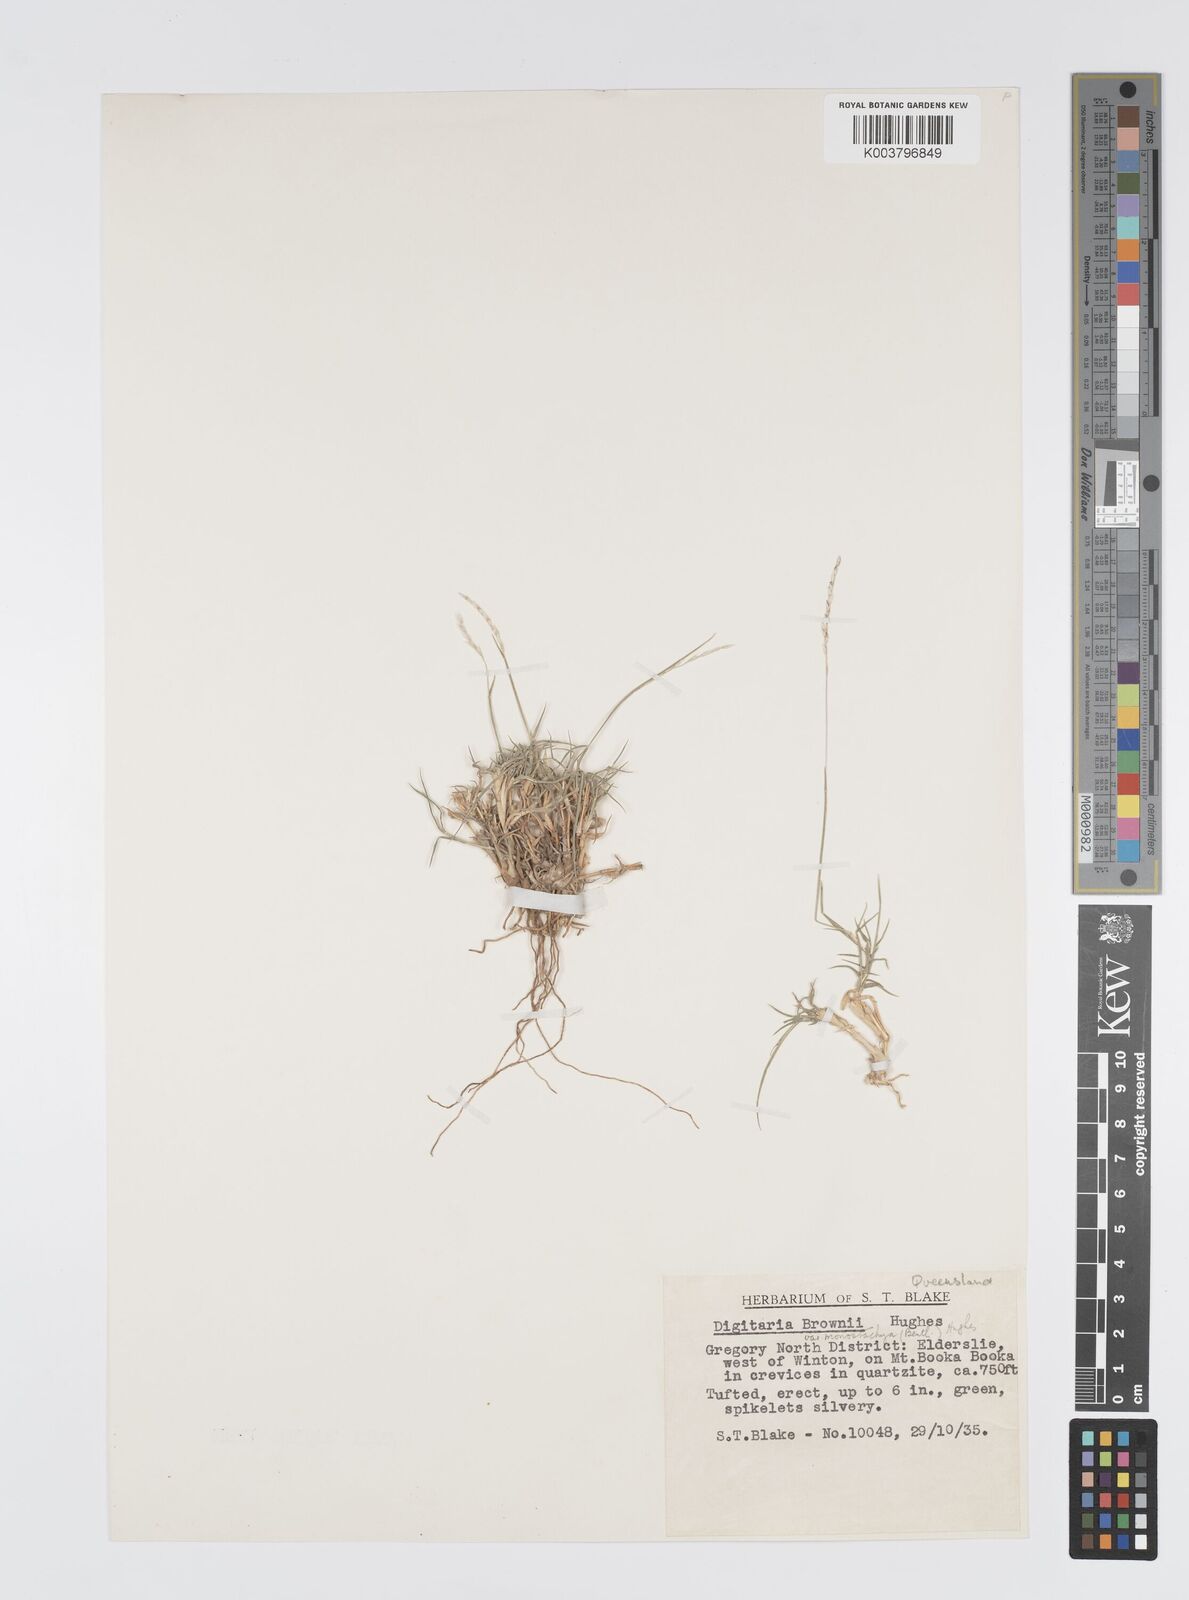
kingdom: Plantae
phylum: Tracheophyta
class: Liliopsida
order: Poales
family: Poaceae
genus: Digitaria
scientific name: Digitaria brownii
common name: Cotton grass
